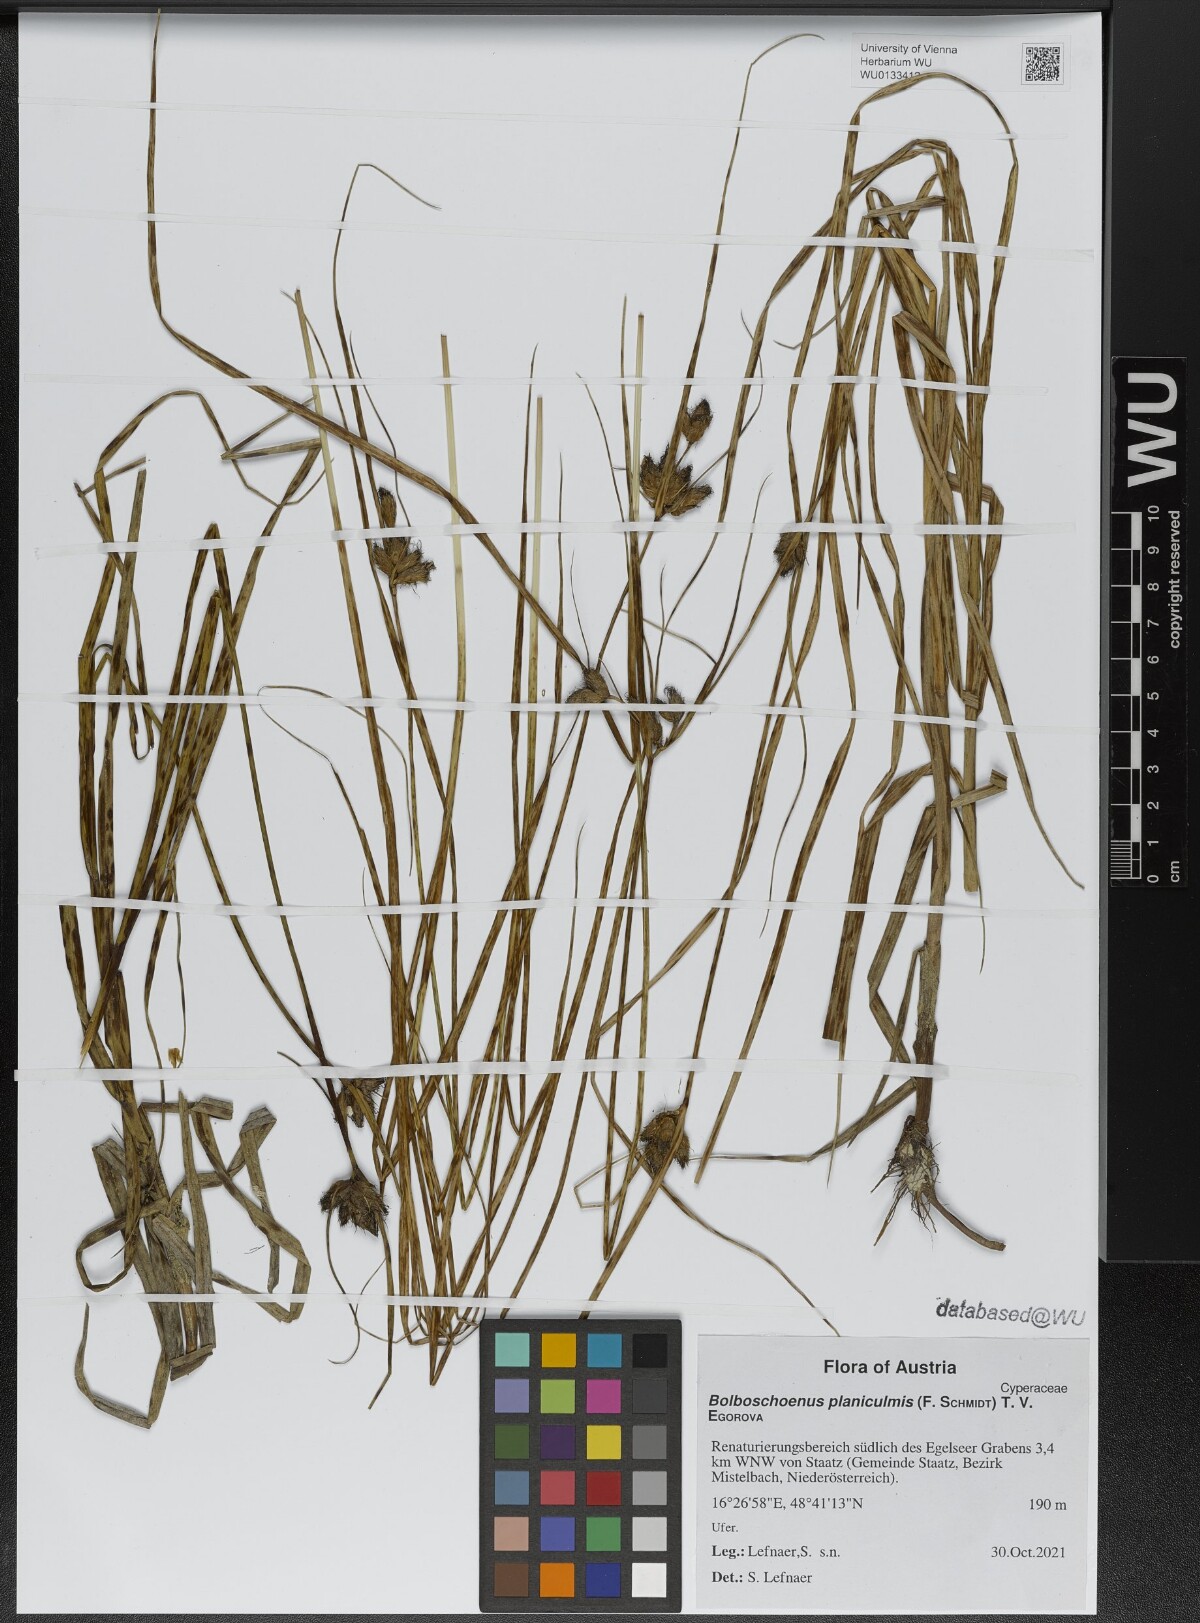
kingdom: Plantae
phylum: Tracheophyta
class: Liliopsida
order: Poales
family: Cyperaceae
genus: Bolboschoenus
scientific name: Bolboschoenus planiculmis
